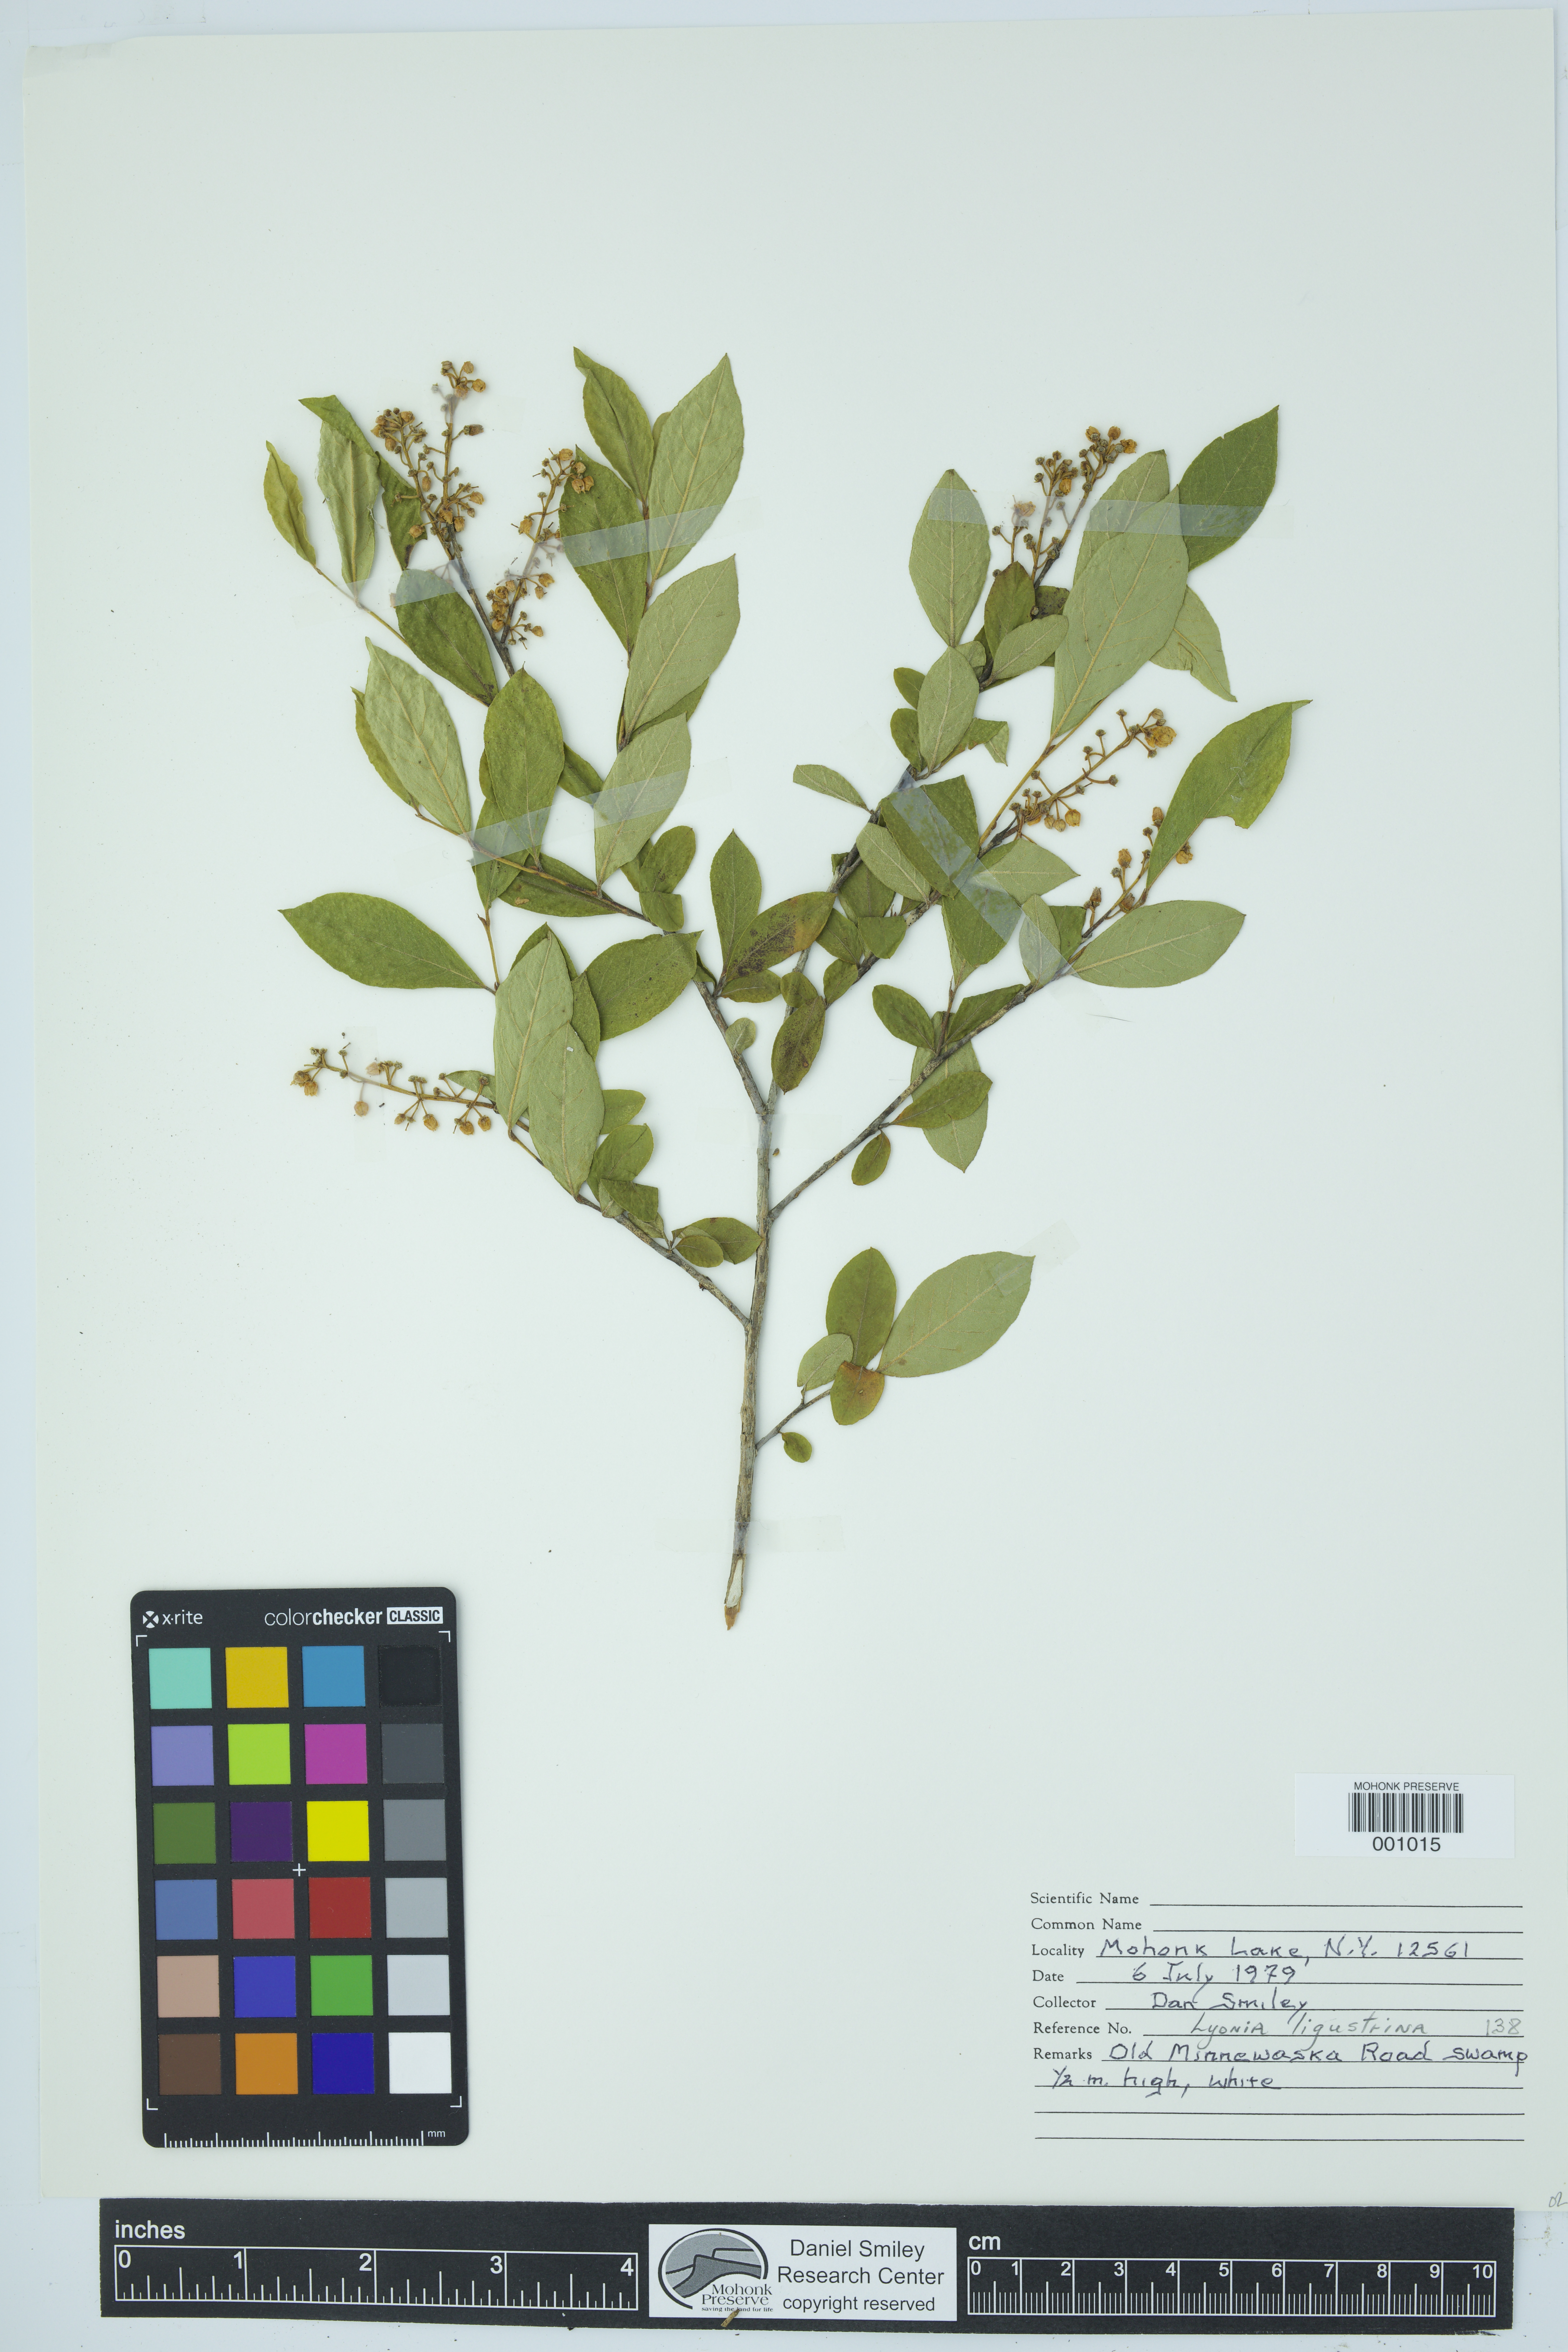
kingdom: Plantae
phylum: Tracheophyta
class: Magnoliopsida
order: Ericales
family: Ericaceae
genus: Lyonia
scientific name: Lyonia ligustrina
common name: Maleberry
